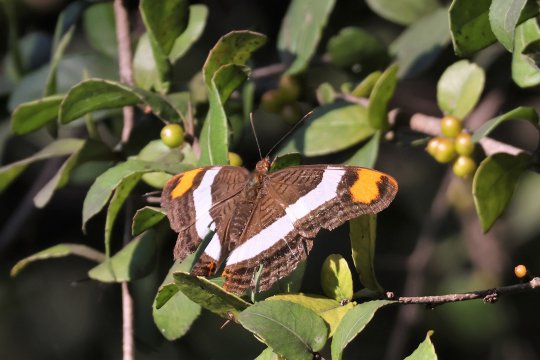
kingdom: Animalia
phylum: Arthropoda
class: Insecta
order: Lepidoptera
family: Nymphalidae
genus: Limenitis
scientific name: Limenitis fessonia
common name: Band-celled Sister
